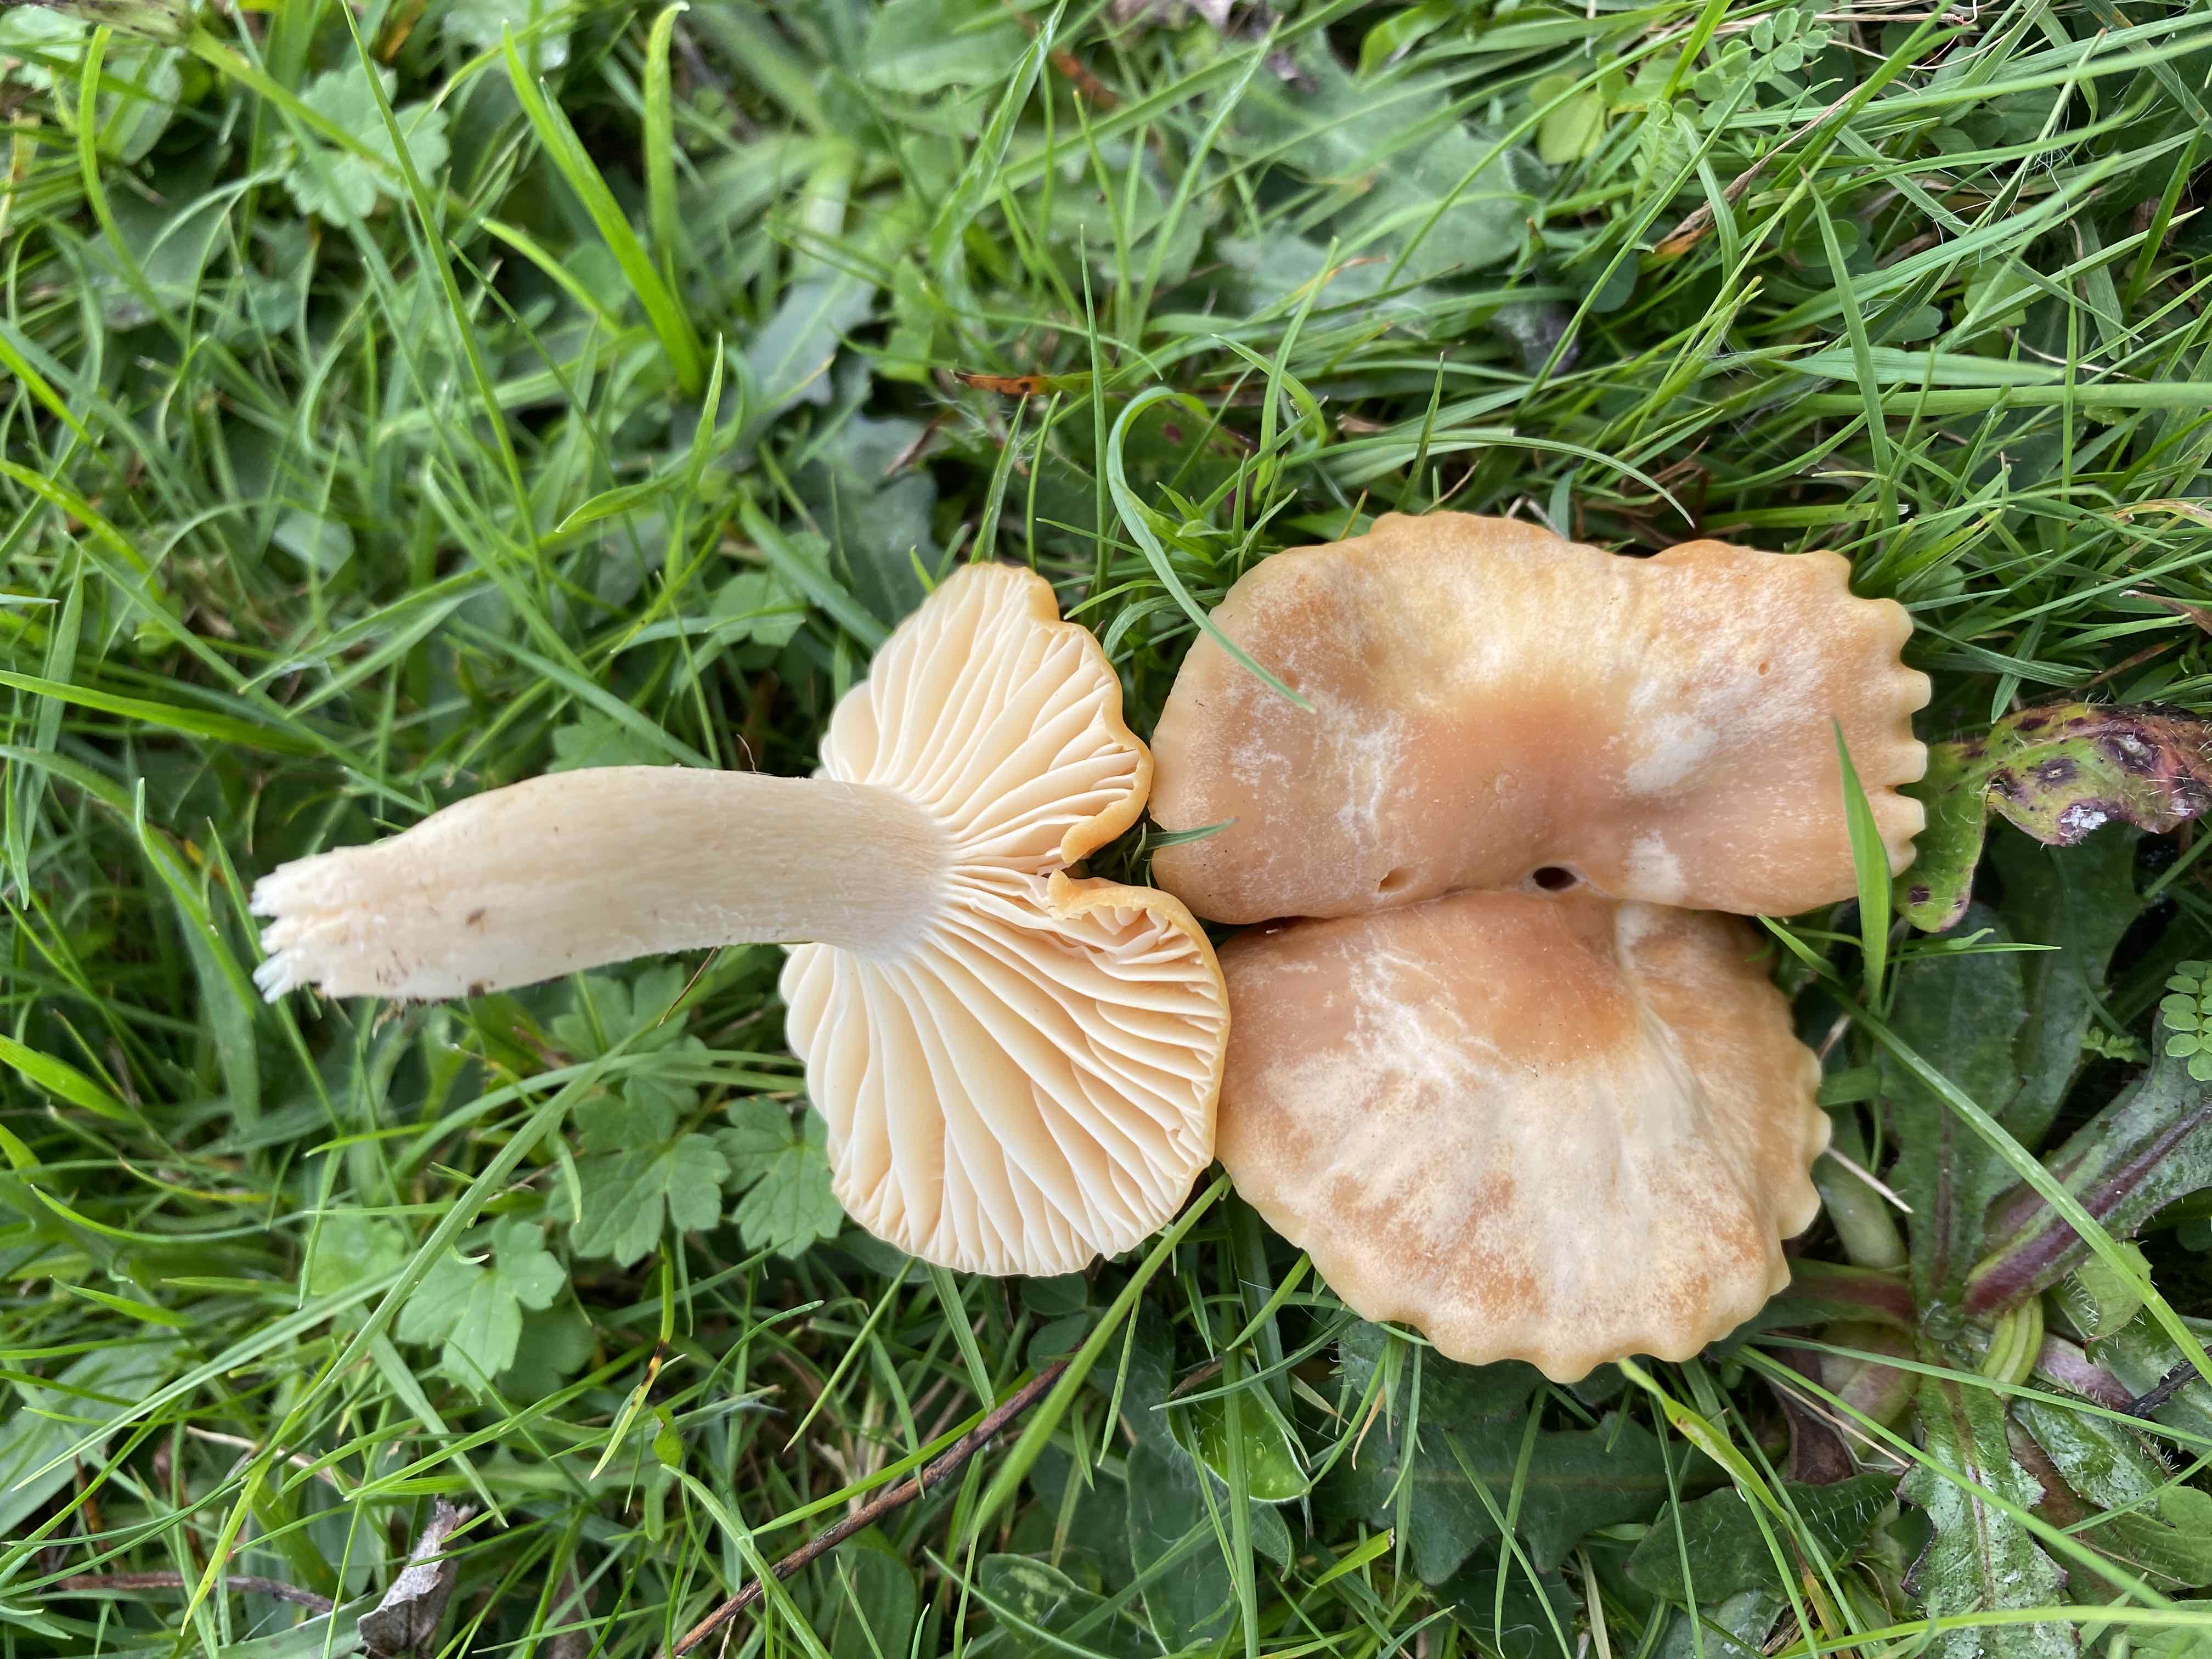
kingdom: Fungi
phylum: Basidiomycota
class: Agaricomycetes
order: Agaricales
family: Hygrophoraceae
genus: Cuphophyllus
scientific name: Cuphophyllus pratensis
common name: eng-vokshat
